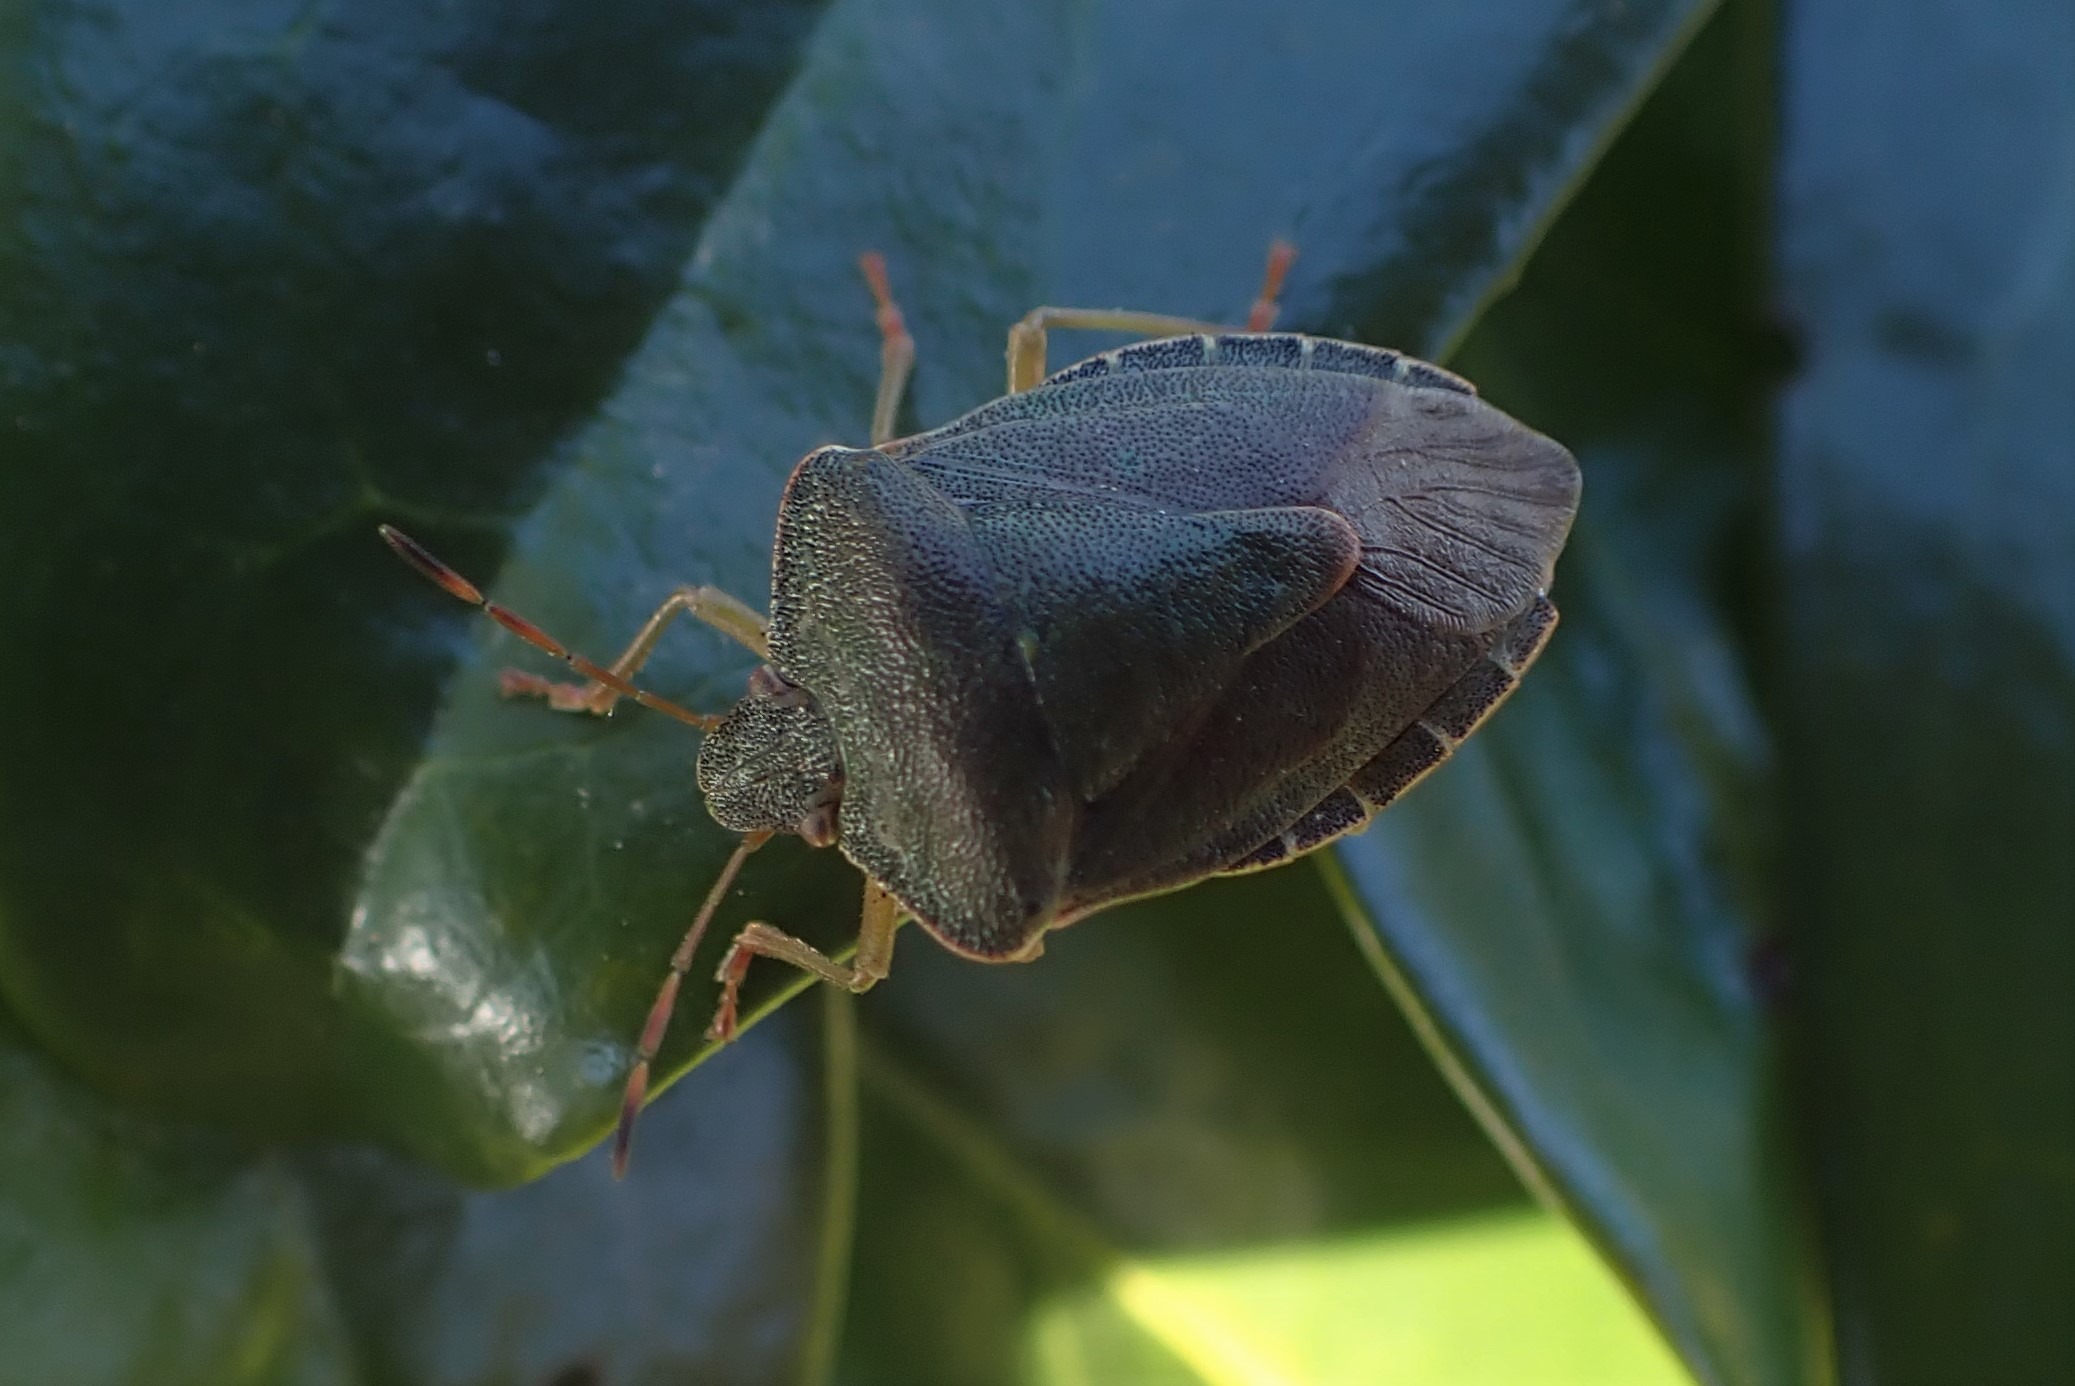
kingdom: Animalia
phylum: Arthropoda
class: Insecta
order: Hemiptera
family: Pentatomidae
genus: Palomena
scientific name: Palomena prasina
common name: Grøn bredtæge
